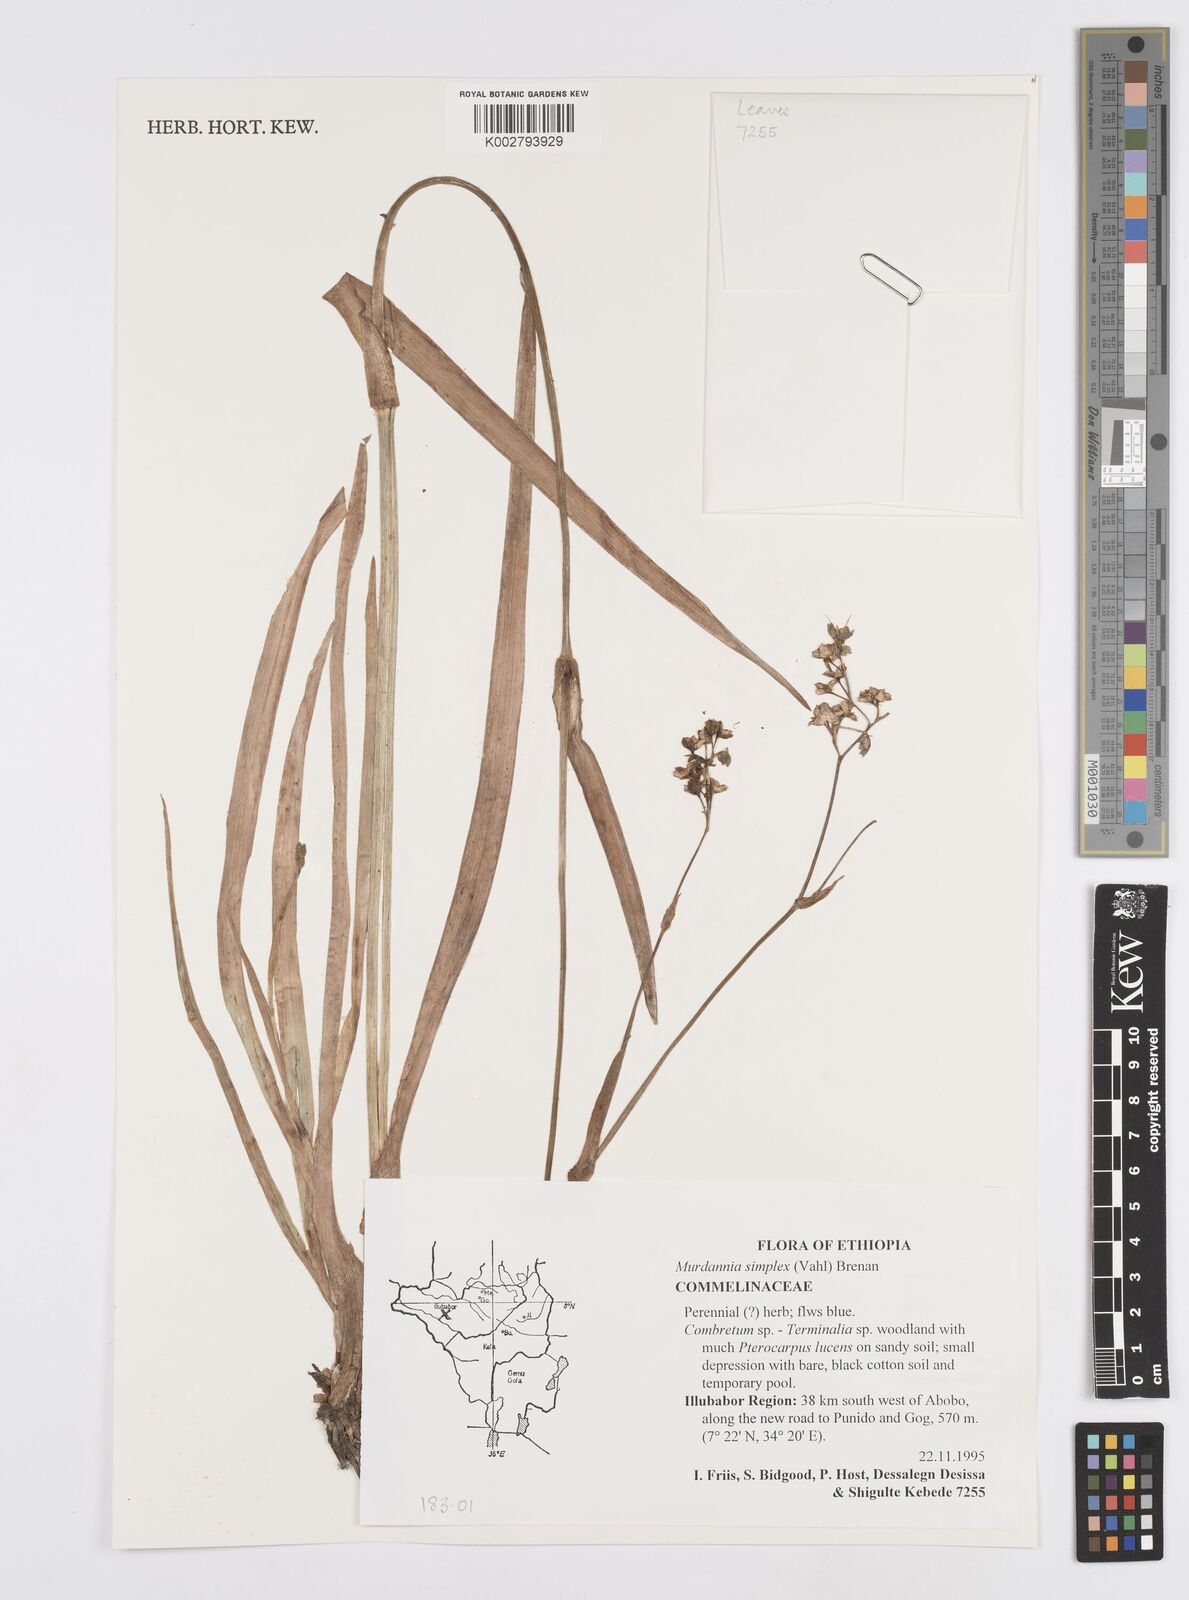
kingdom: Plantae
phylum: Tracheophyta
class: Liliopsida
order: Commelinales
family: Commelinaceae
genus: Murdannia
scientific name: Murdannia simplex
